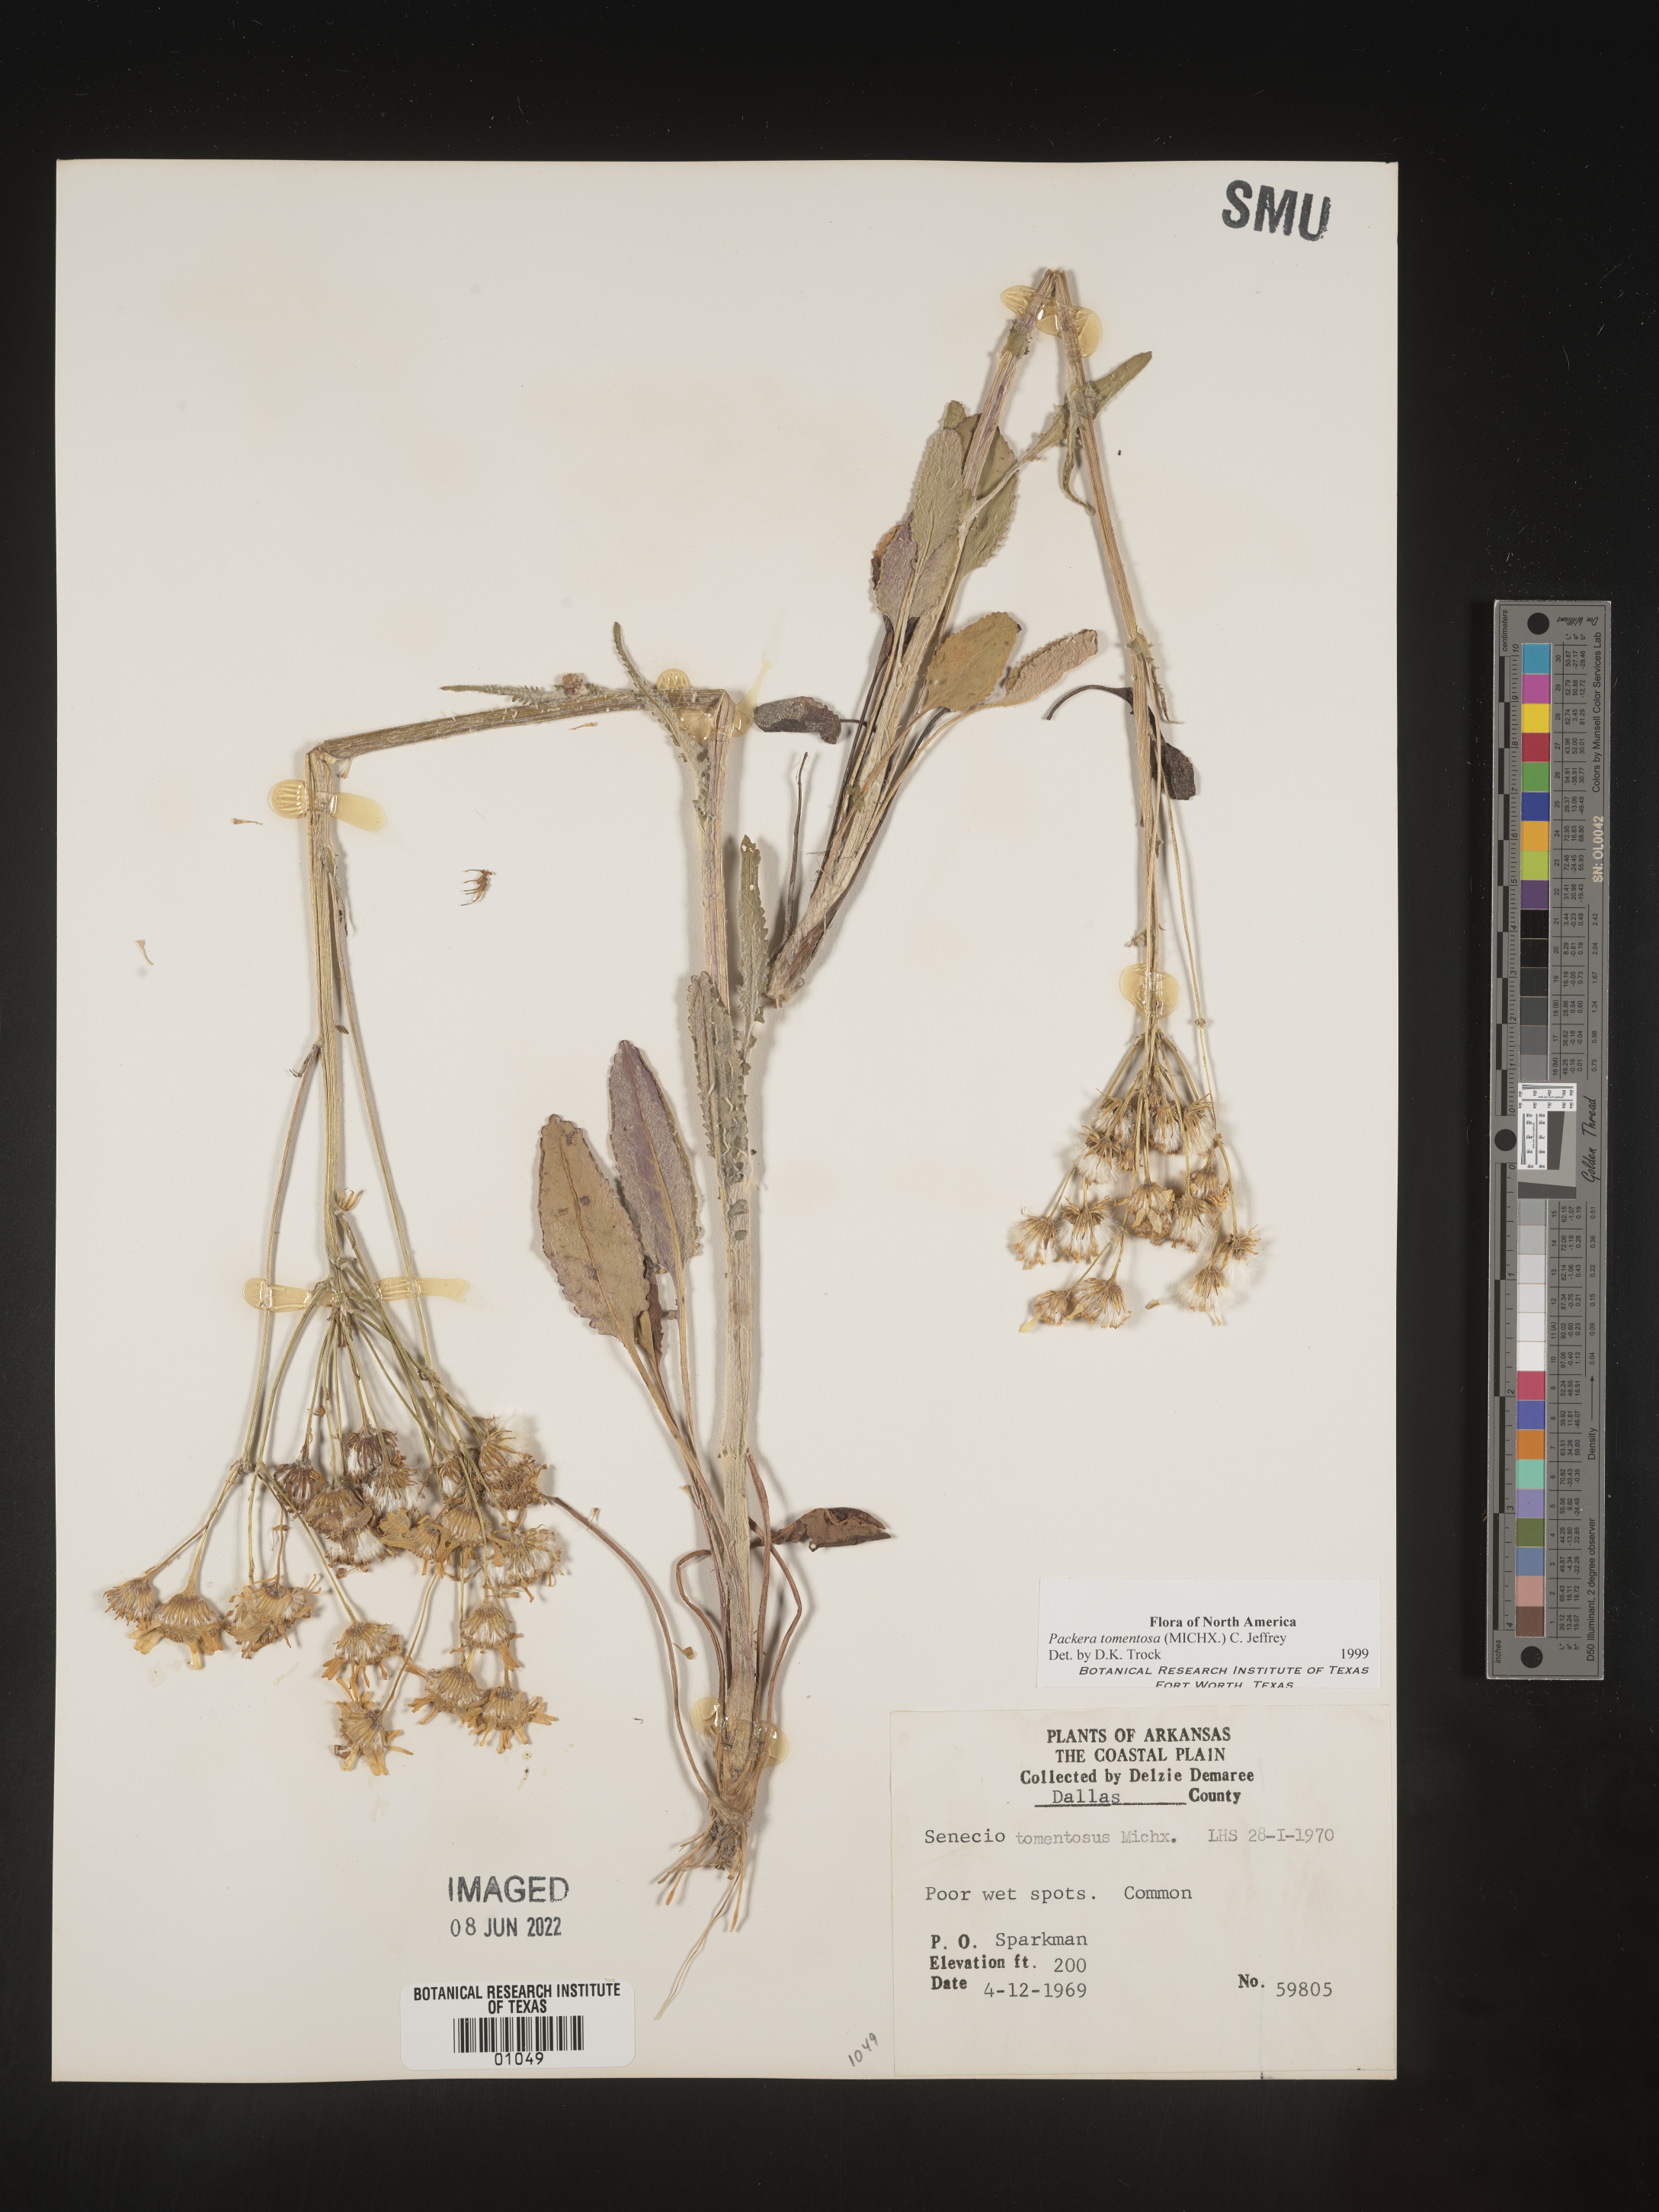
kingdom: Plantae
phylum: Tracheophyta
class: Magnoliopsida
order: Asterales
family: Asteraceae
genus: Packera
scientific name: Packera dubia
